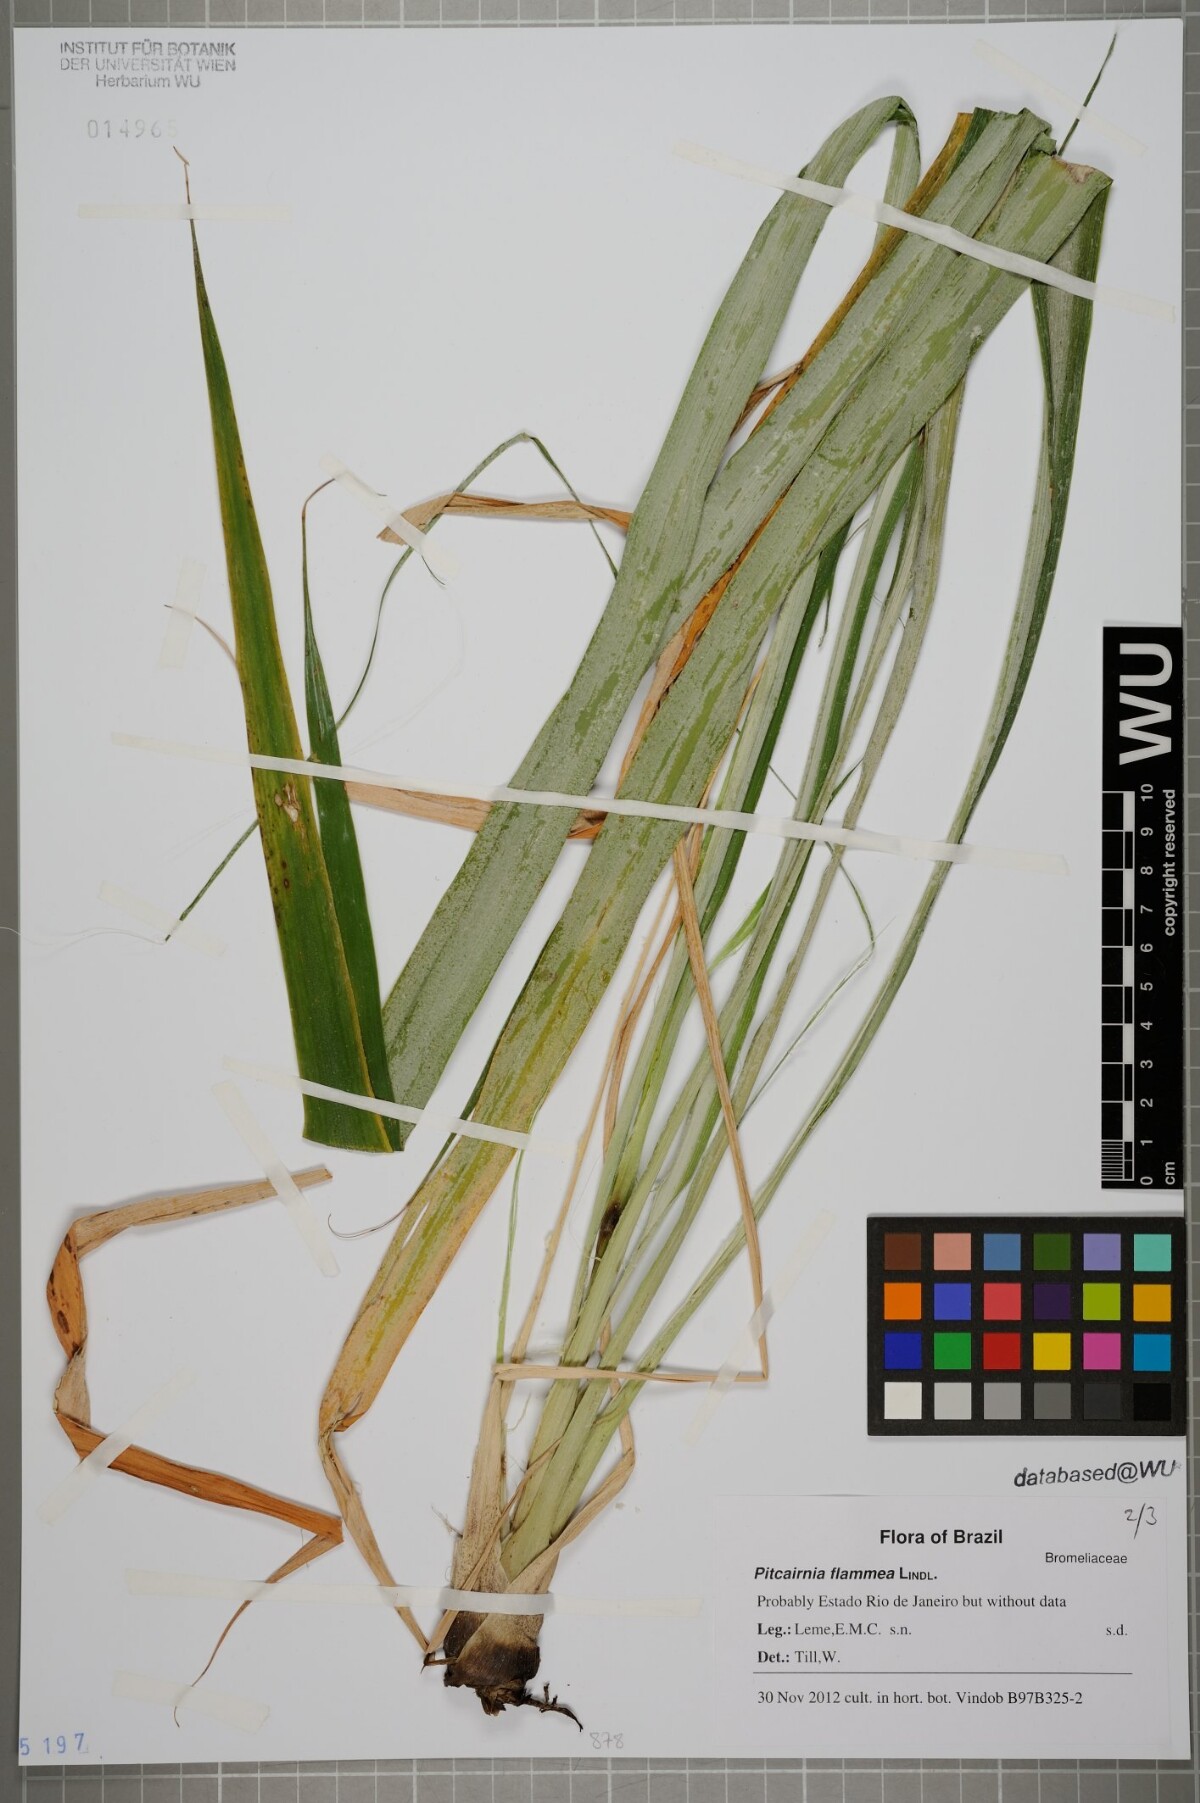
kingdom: Plantae
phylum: Tracheophyta
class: Liliopsida
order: Poales
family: Bromeliaceae
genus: Pitcairnia
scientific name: Pitcairnia flammea
